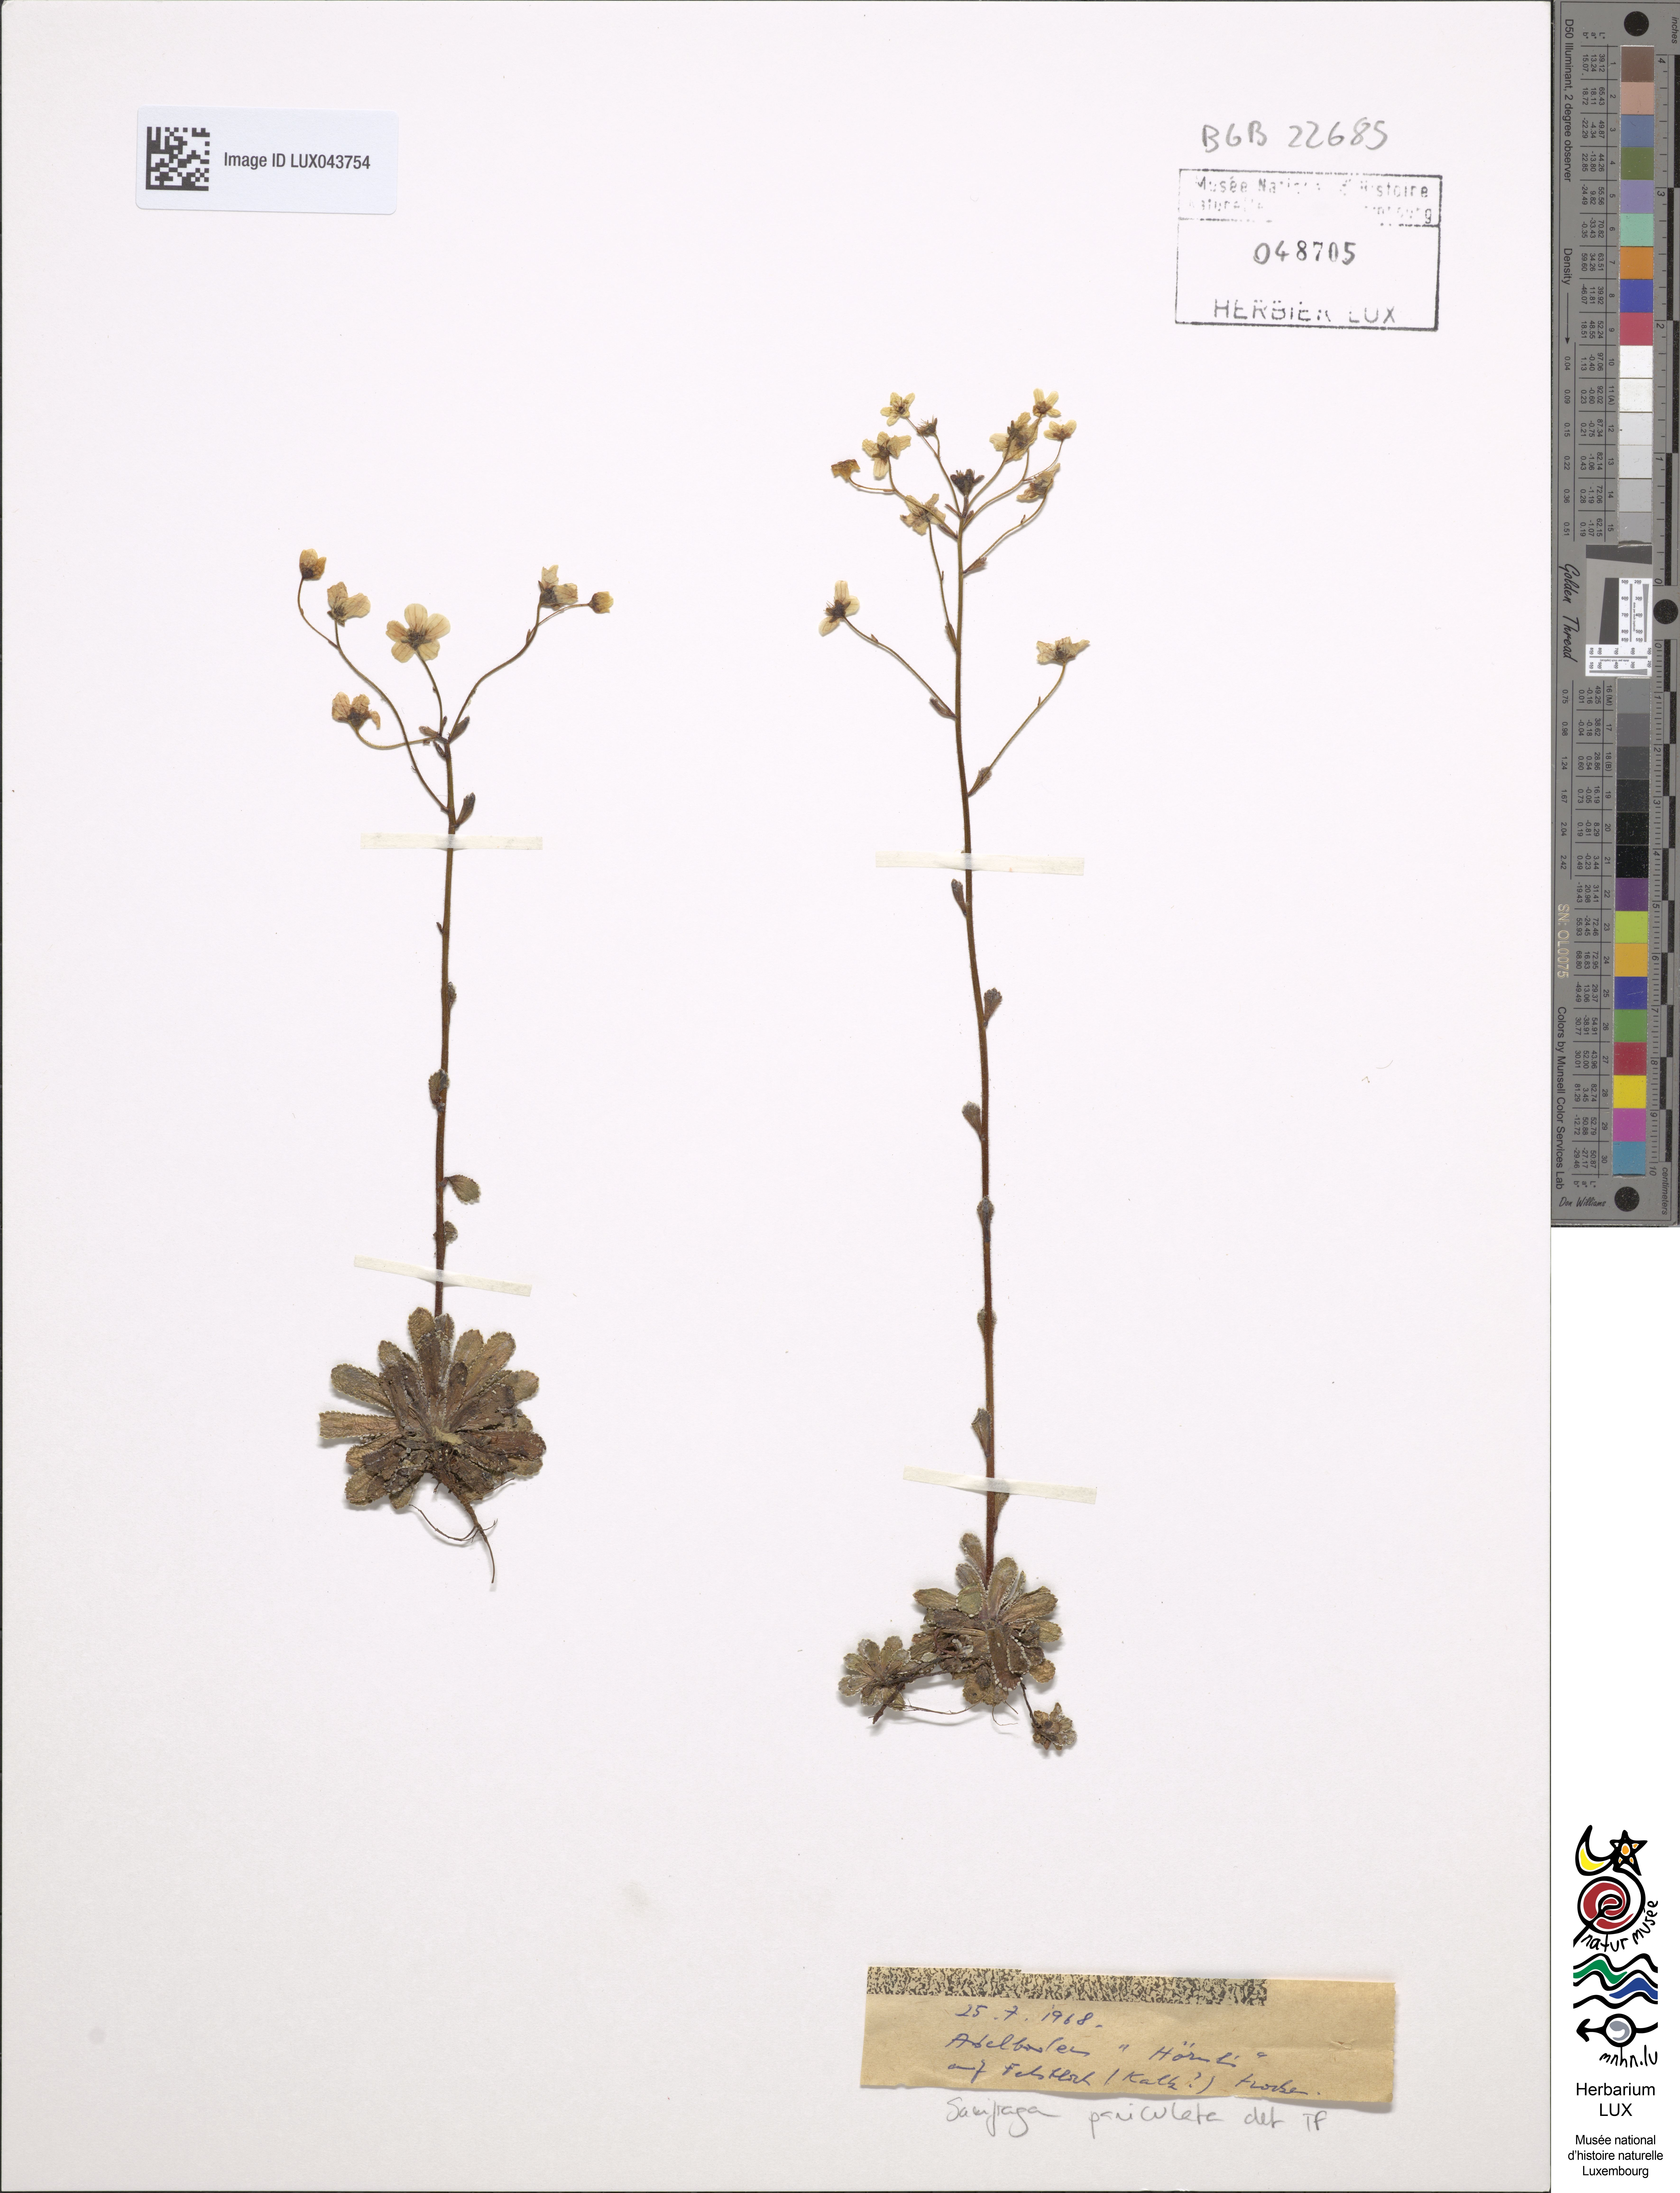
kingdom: Plantae
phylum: Tracheophyta
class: Magnoliopsida
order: Saxifragales
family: Saxifragaceae
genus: Saxifraga
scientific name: Saxifraga paniculata
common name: Livelong saxifrage
